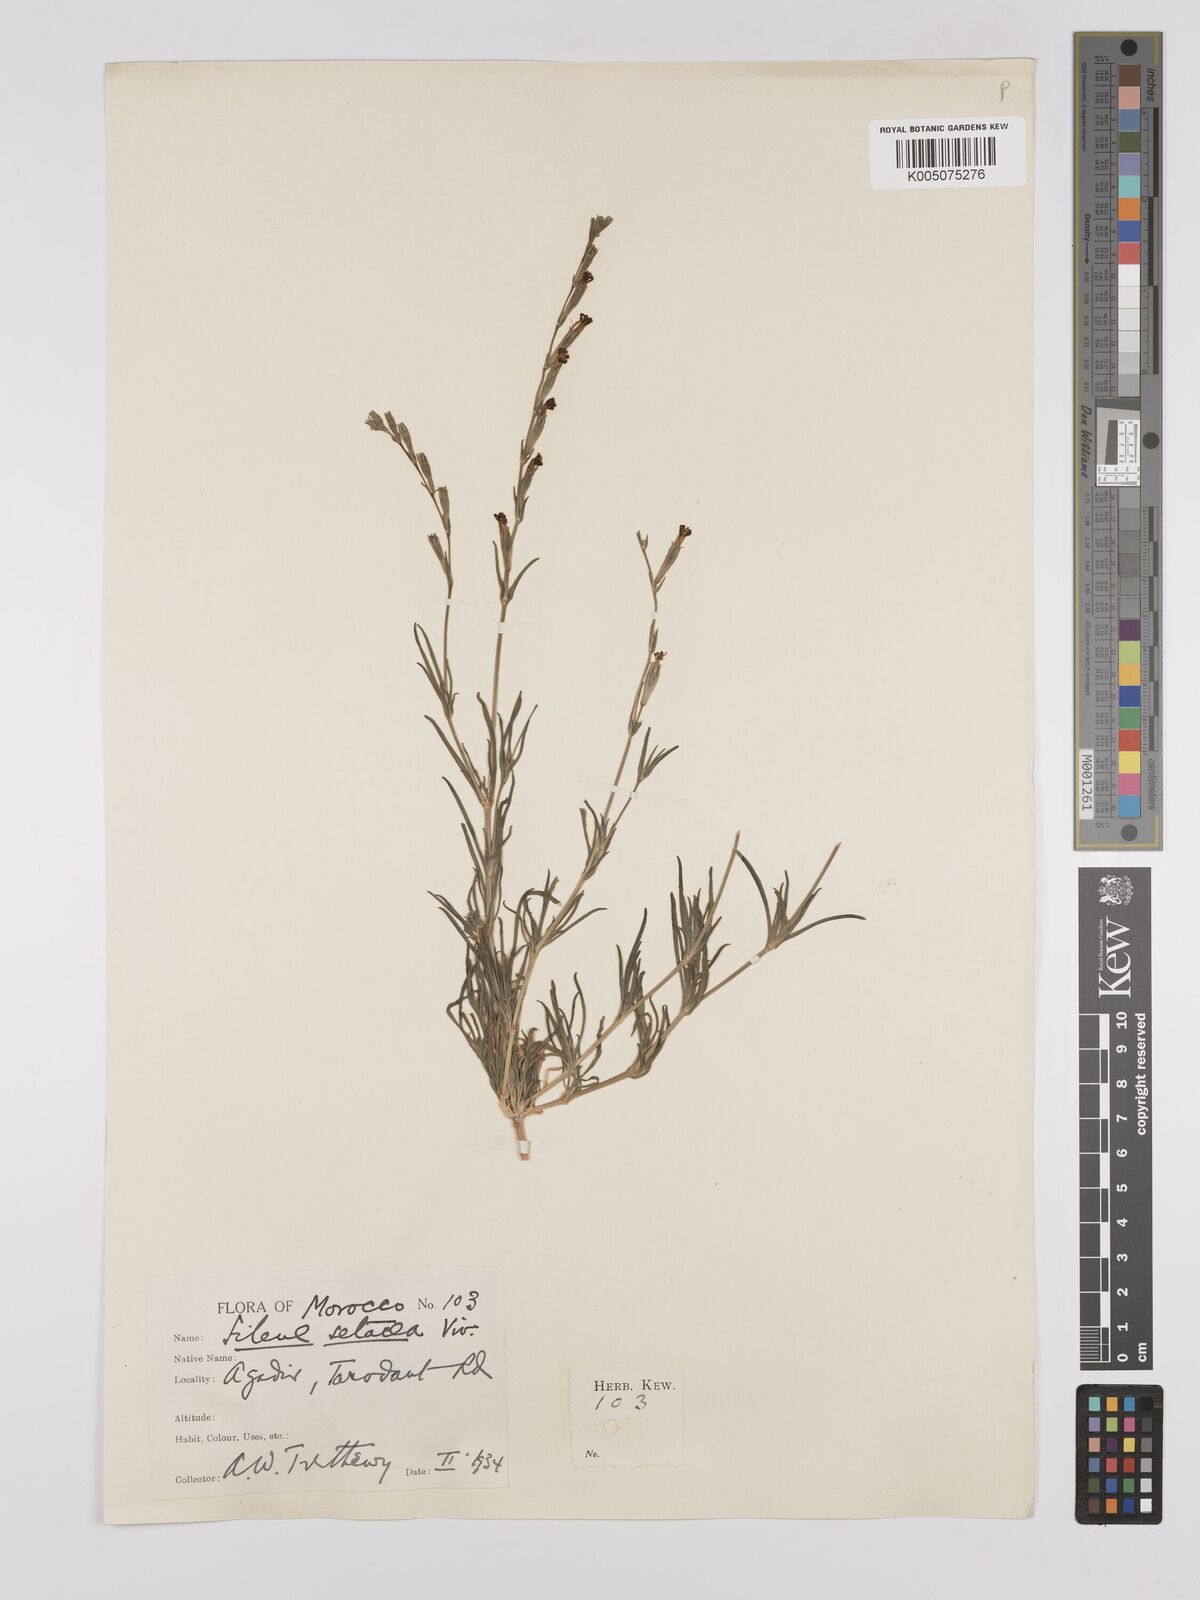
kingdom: Plantae
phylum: Tracheophyta
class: Magnoliopsida
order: Caryophyllales
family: Caryophyllaceae
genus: Silene
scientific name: Silene vivianii
